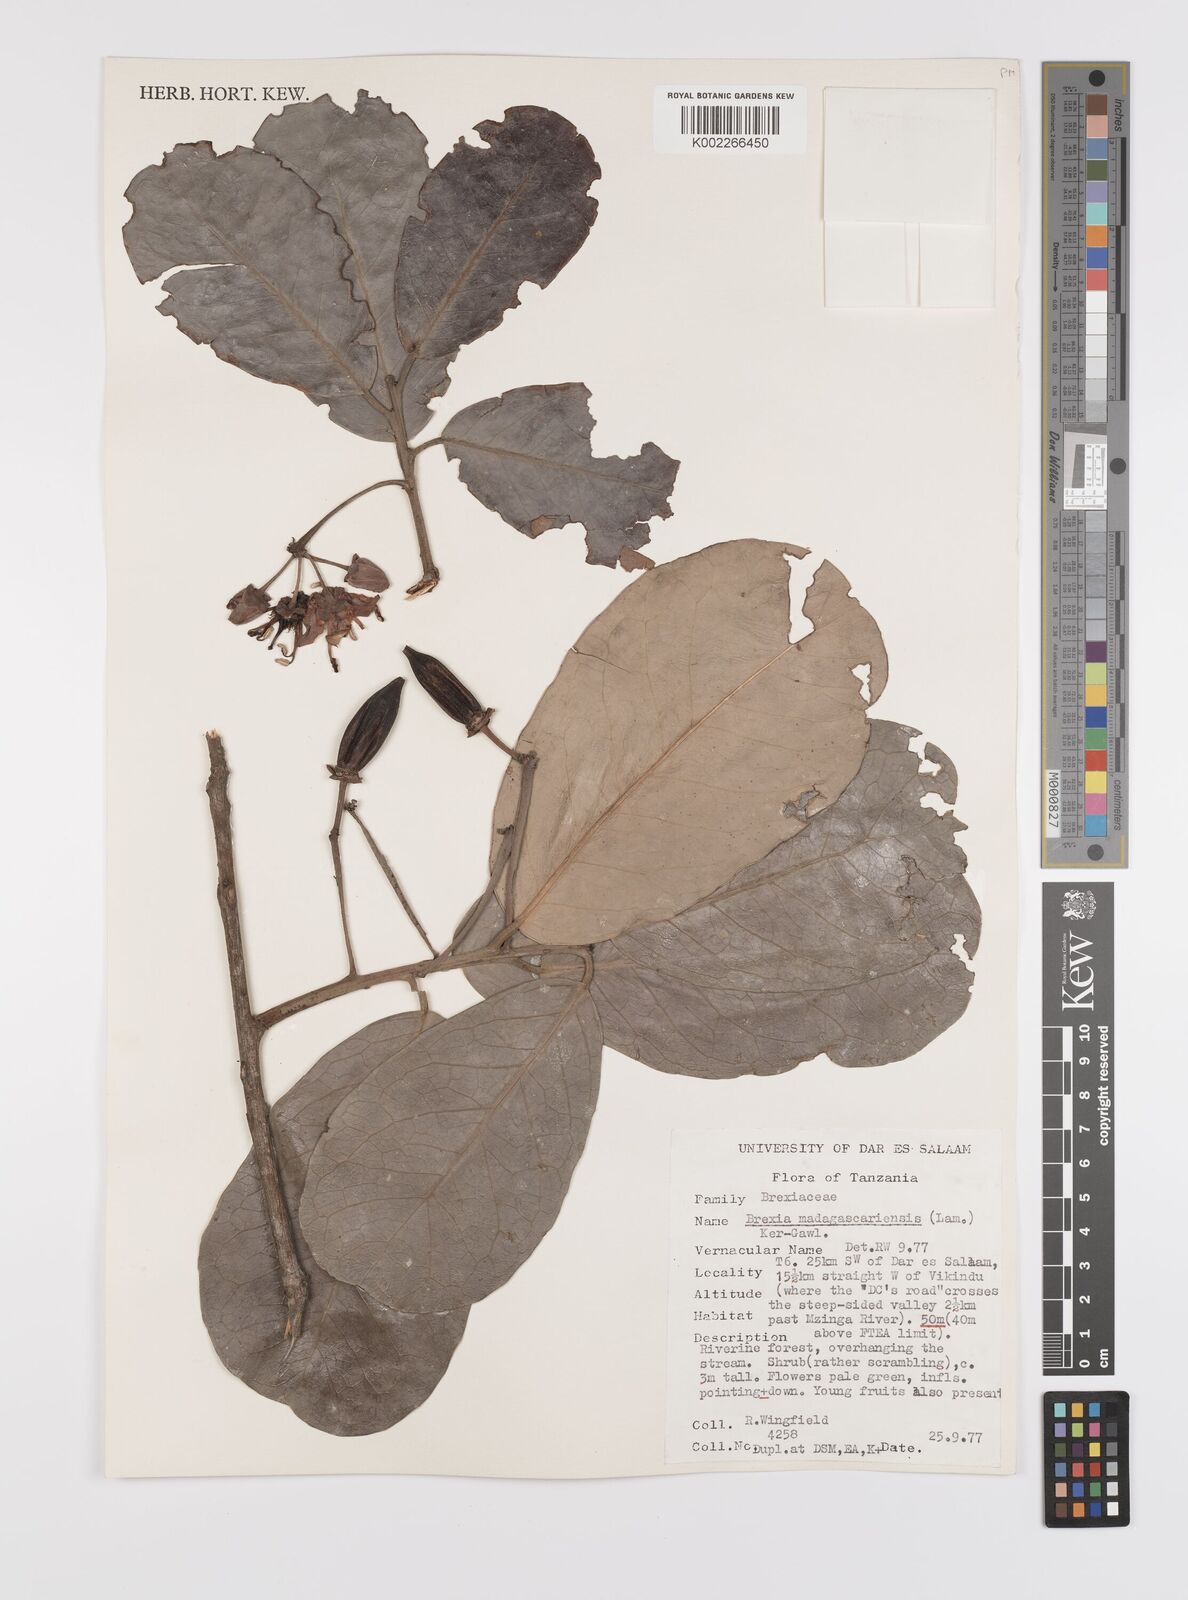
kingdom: Plantae
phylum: Tracheophyta
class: Magnoliopsida
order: Celastrales
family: Celastraceae
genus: Brexia
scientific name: Brexia madagascariensis
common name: Brexia
